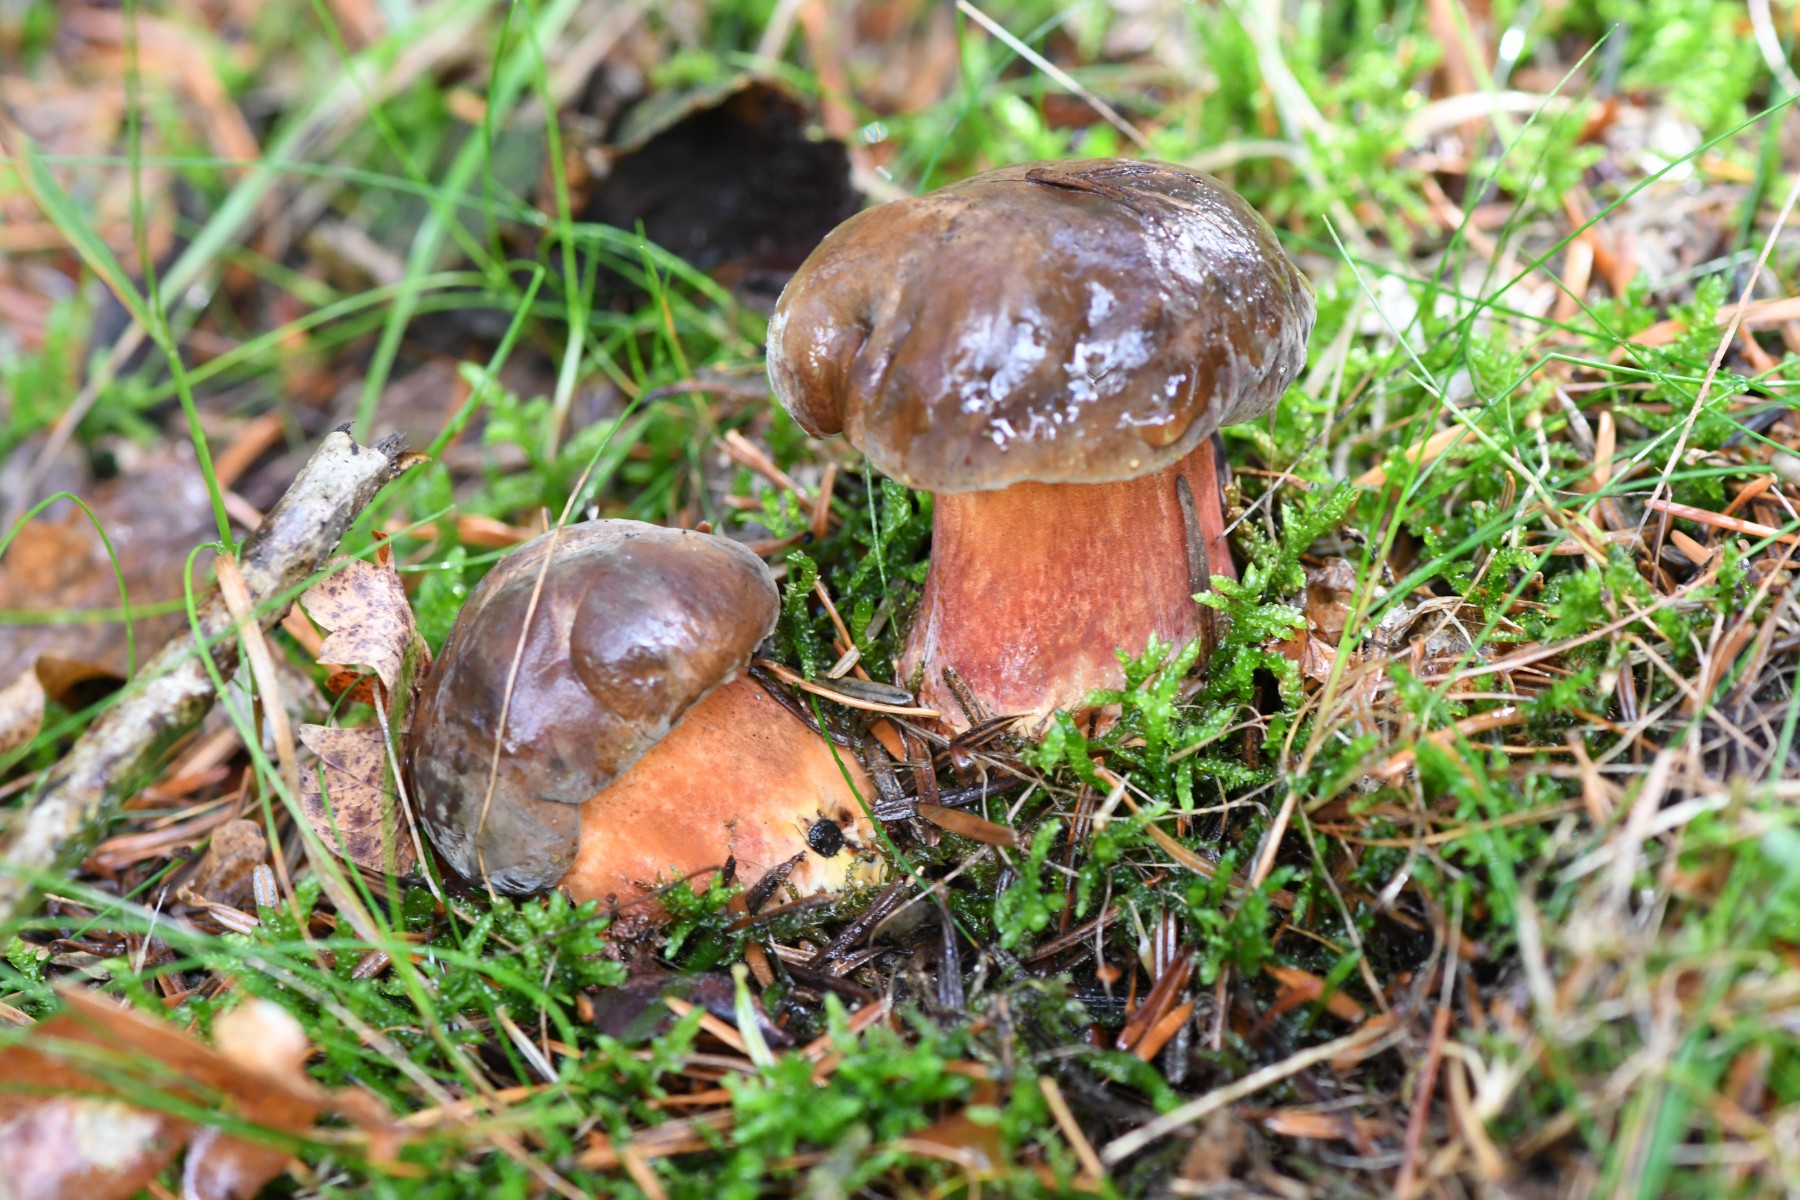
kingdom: Fungi
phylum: Basidiomycota
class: Agaricomycetes
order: Boletales
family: Boletaceae
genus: Neoboletus
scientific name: Neoboletus erythropus
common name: punktstokket indigorørhat
